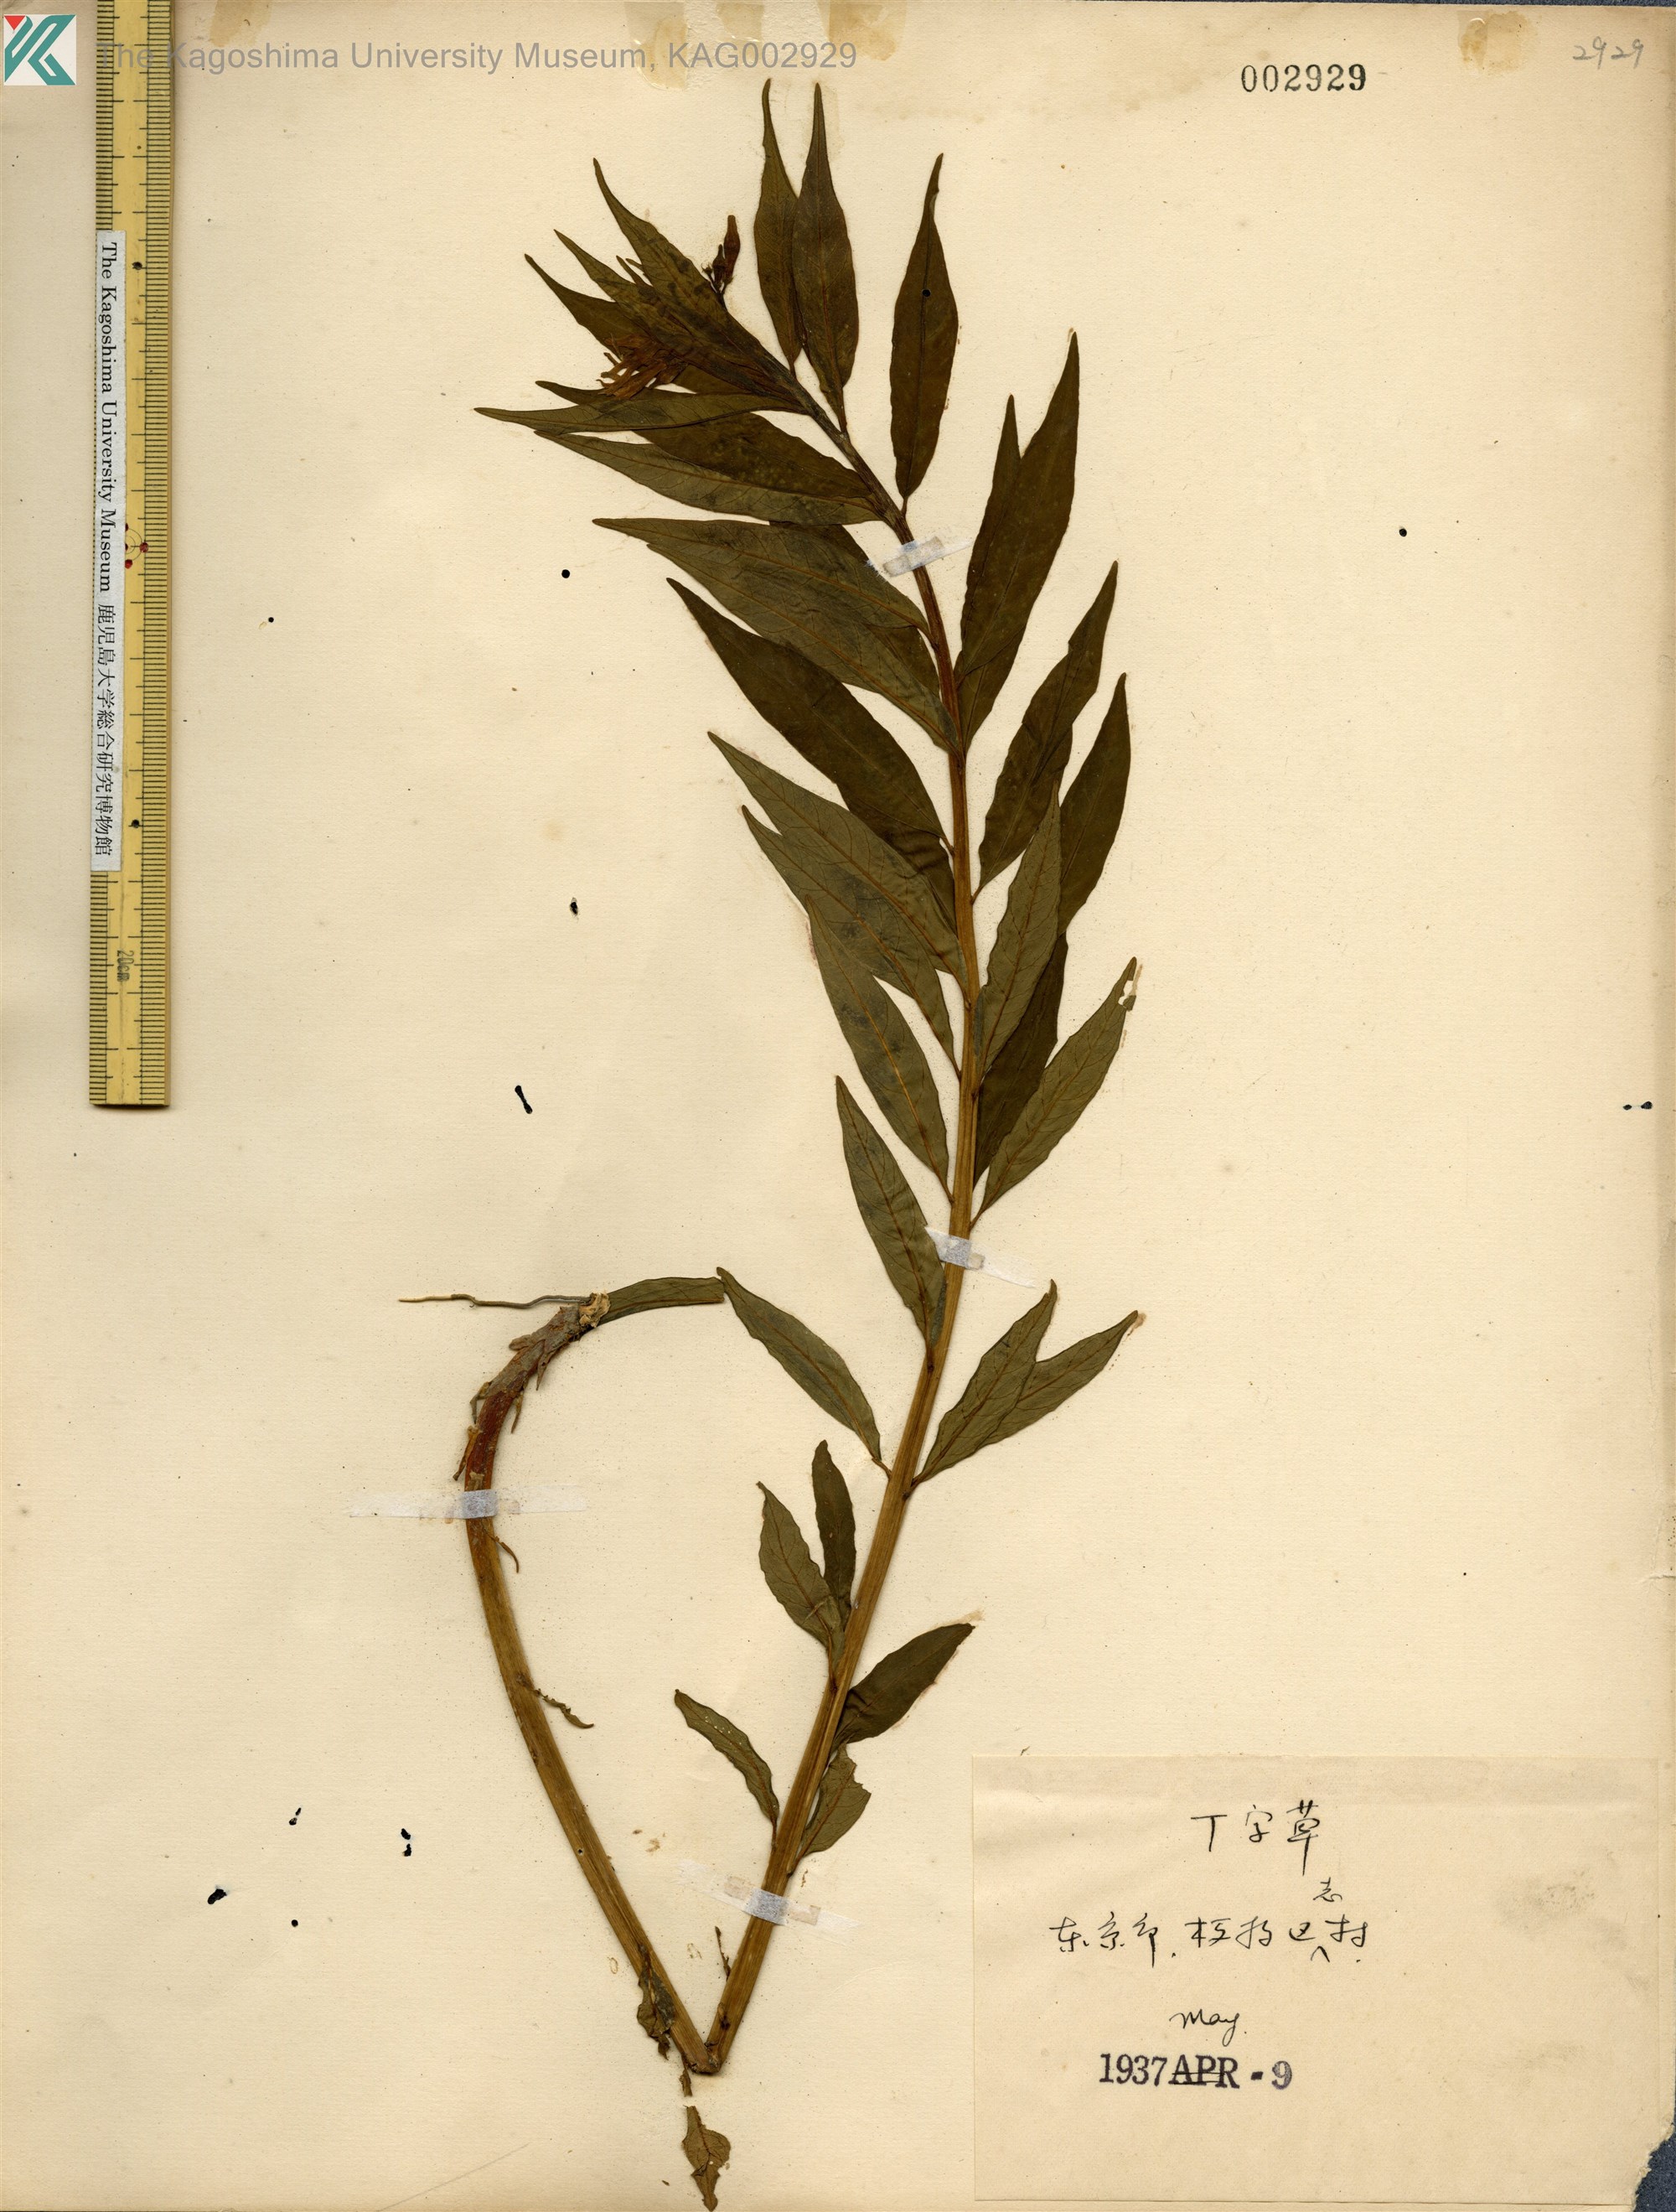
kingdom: Plantae
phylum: Tracheophyta
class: Magnoliopsida
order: Gentianales
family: Apocynaceae
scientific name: Apocynaceae
